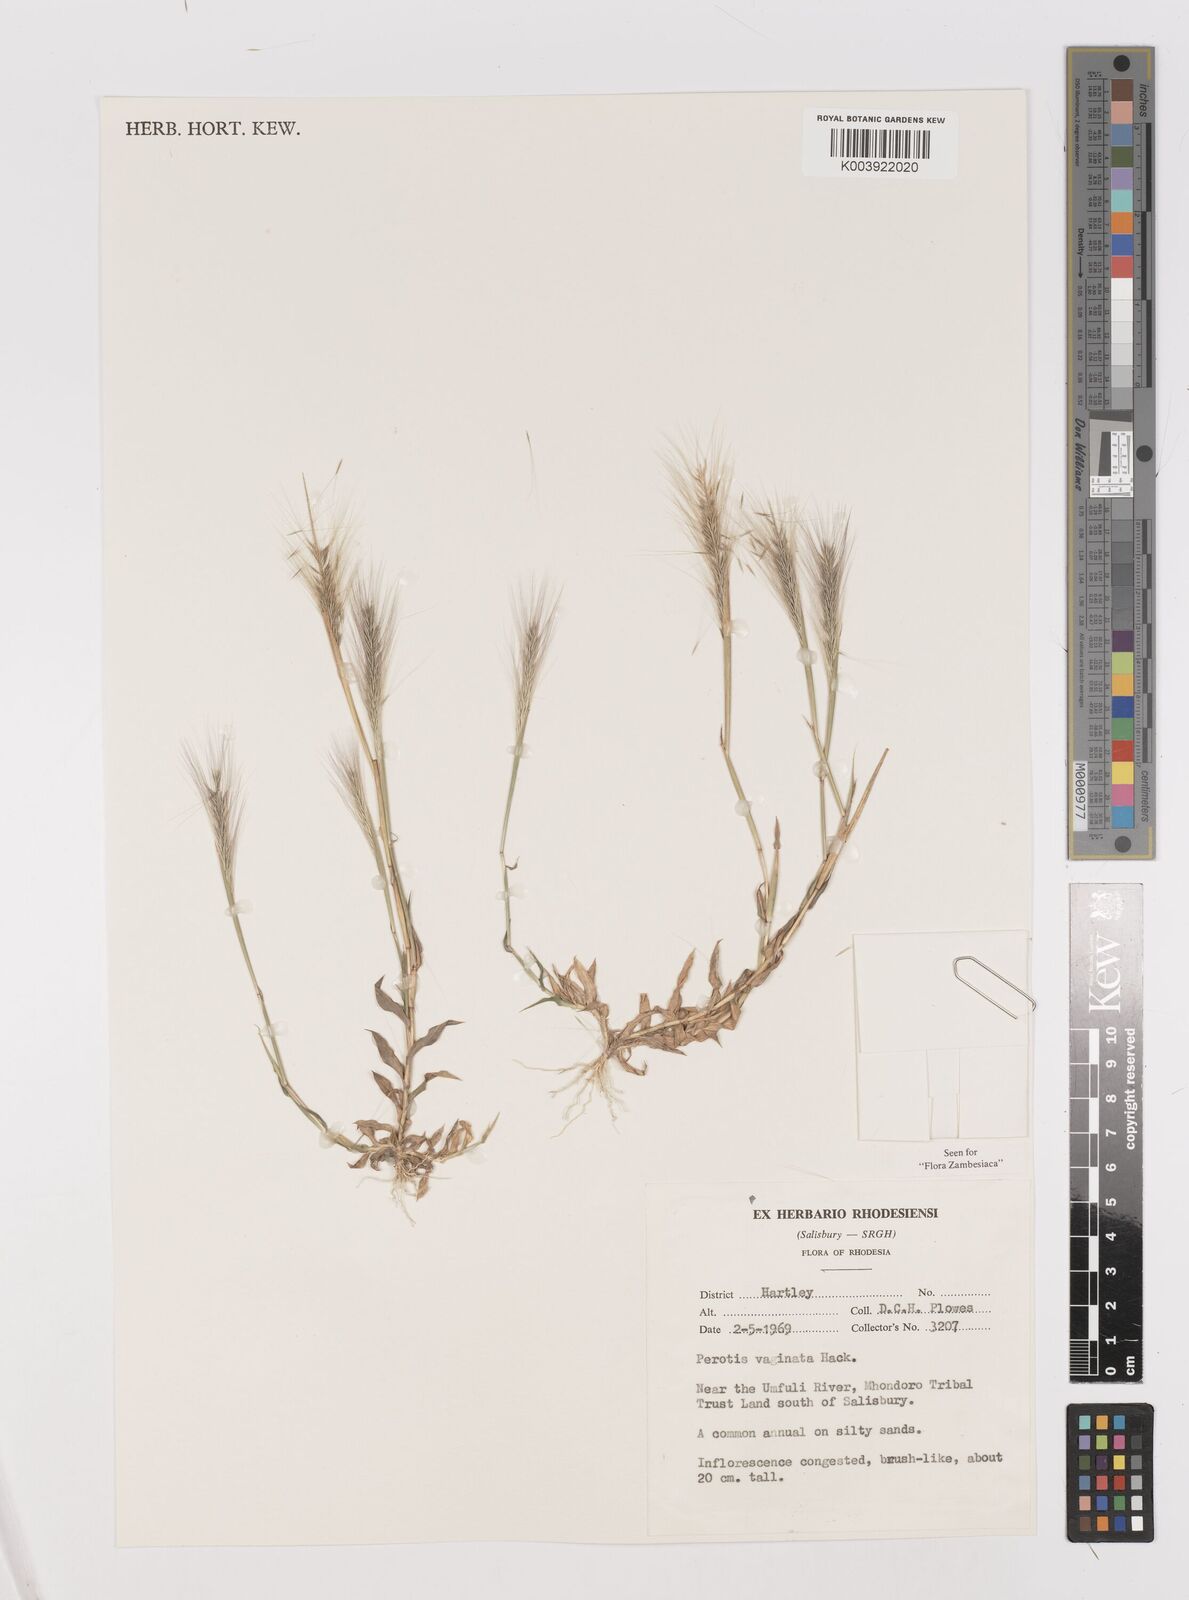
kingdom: Plantae
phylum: Tracheophyta
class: Liliopsida
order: Poales
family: Poaceae
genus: Perotis
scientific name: Perotis vaginata
